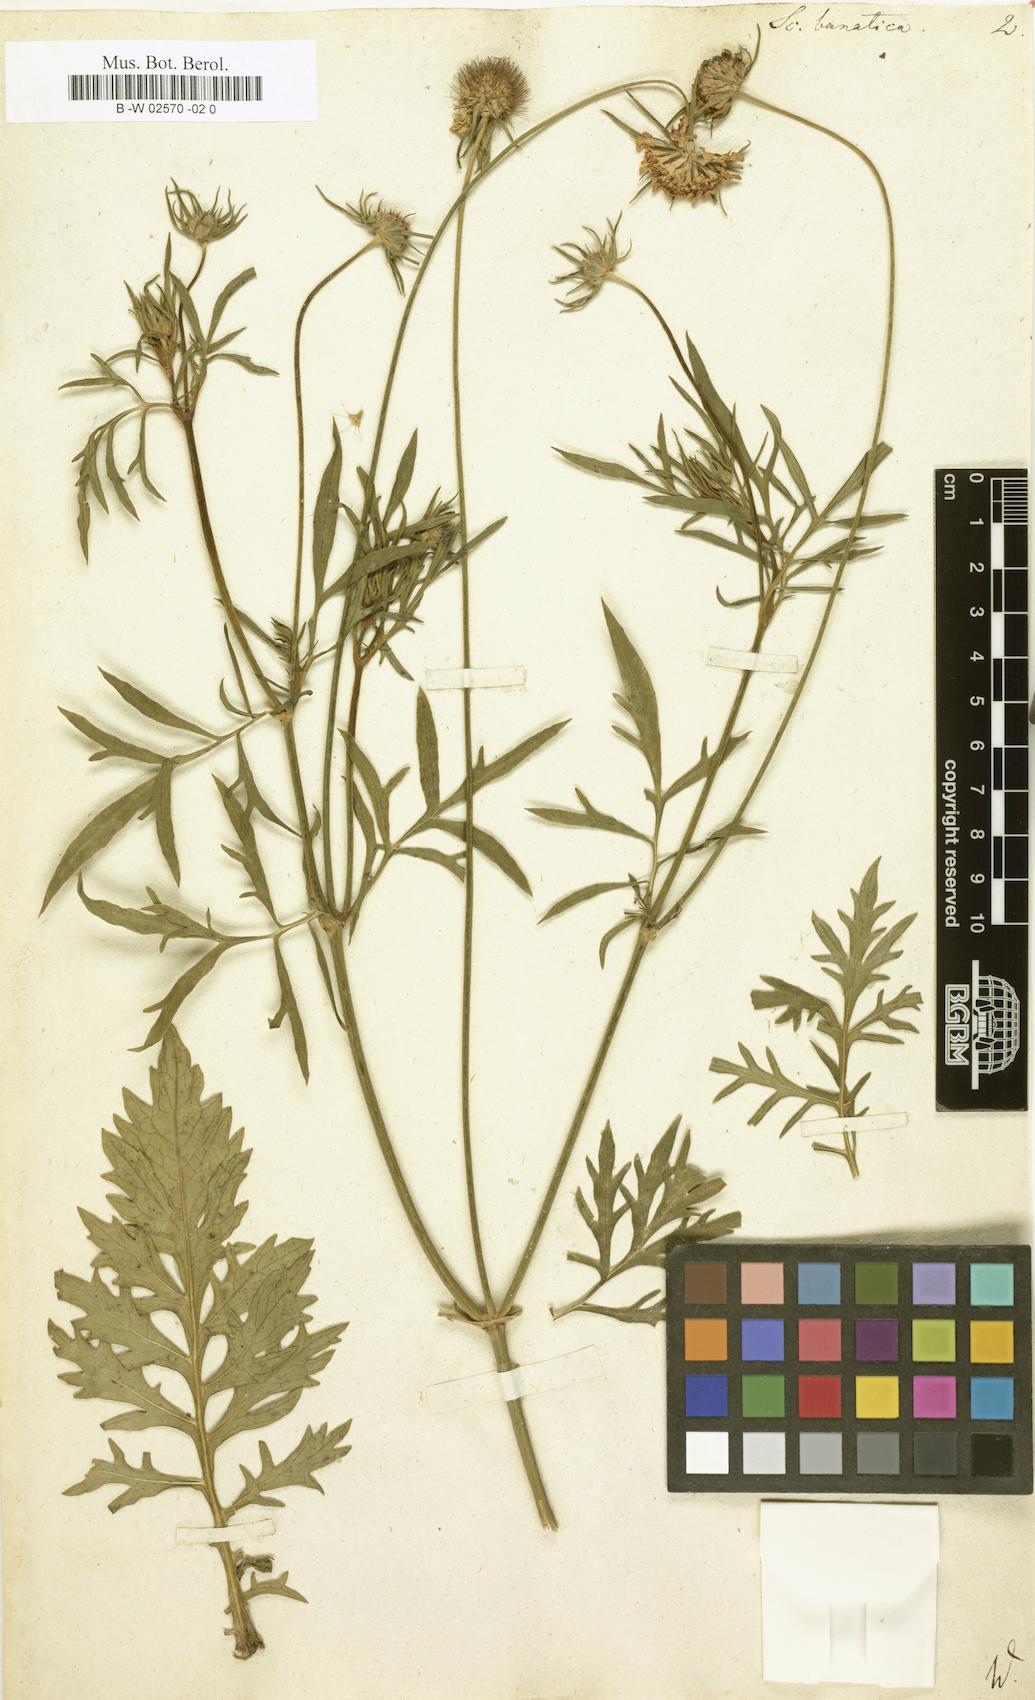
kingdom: Plantae
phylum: Tracheophyta
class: Magnoliopsida
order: Dipsacales
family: Caprifoliaceae
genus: Scabiosa
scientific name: Scabiosa columbaria
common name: Small scabious
